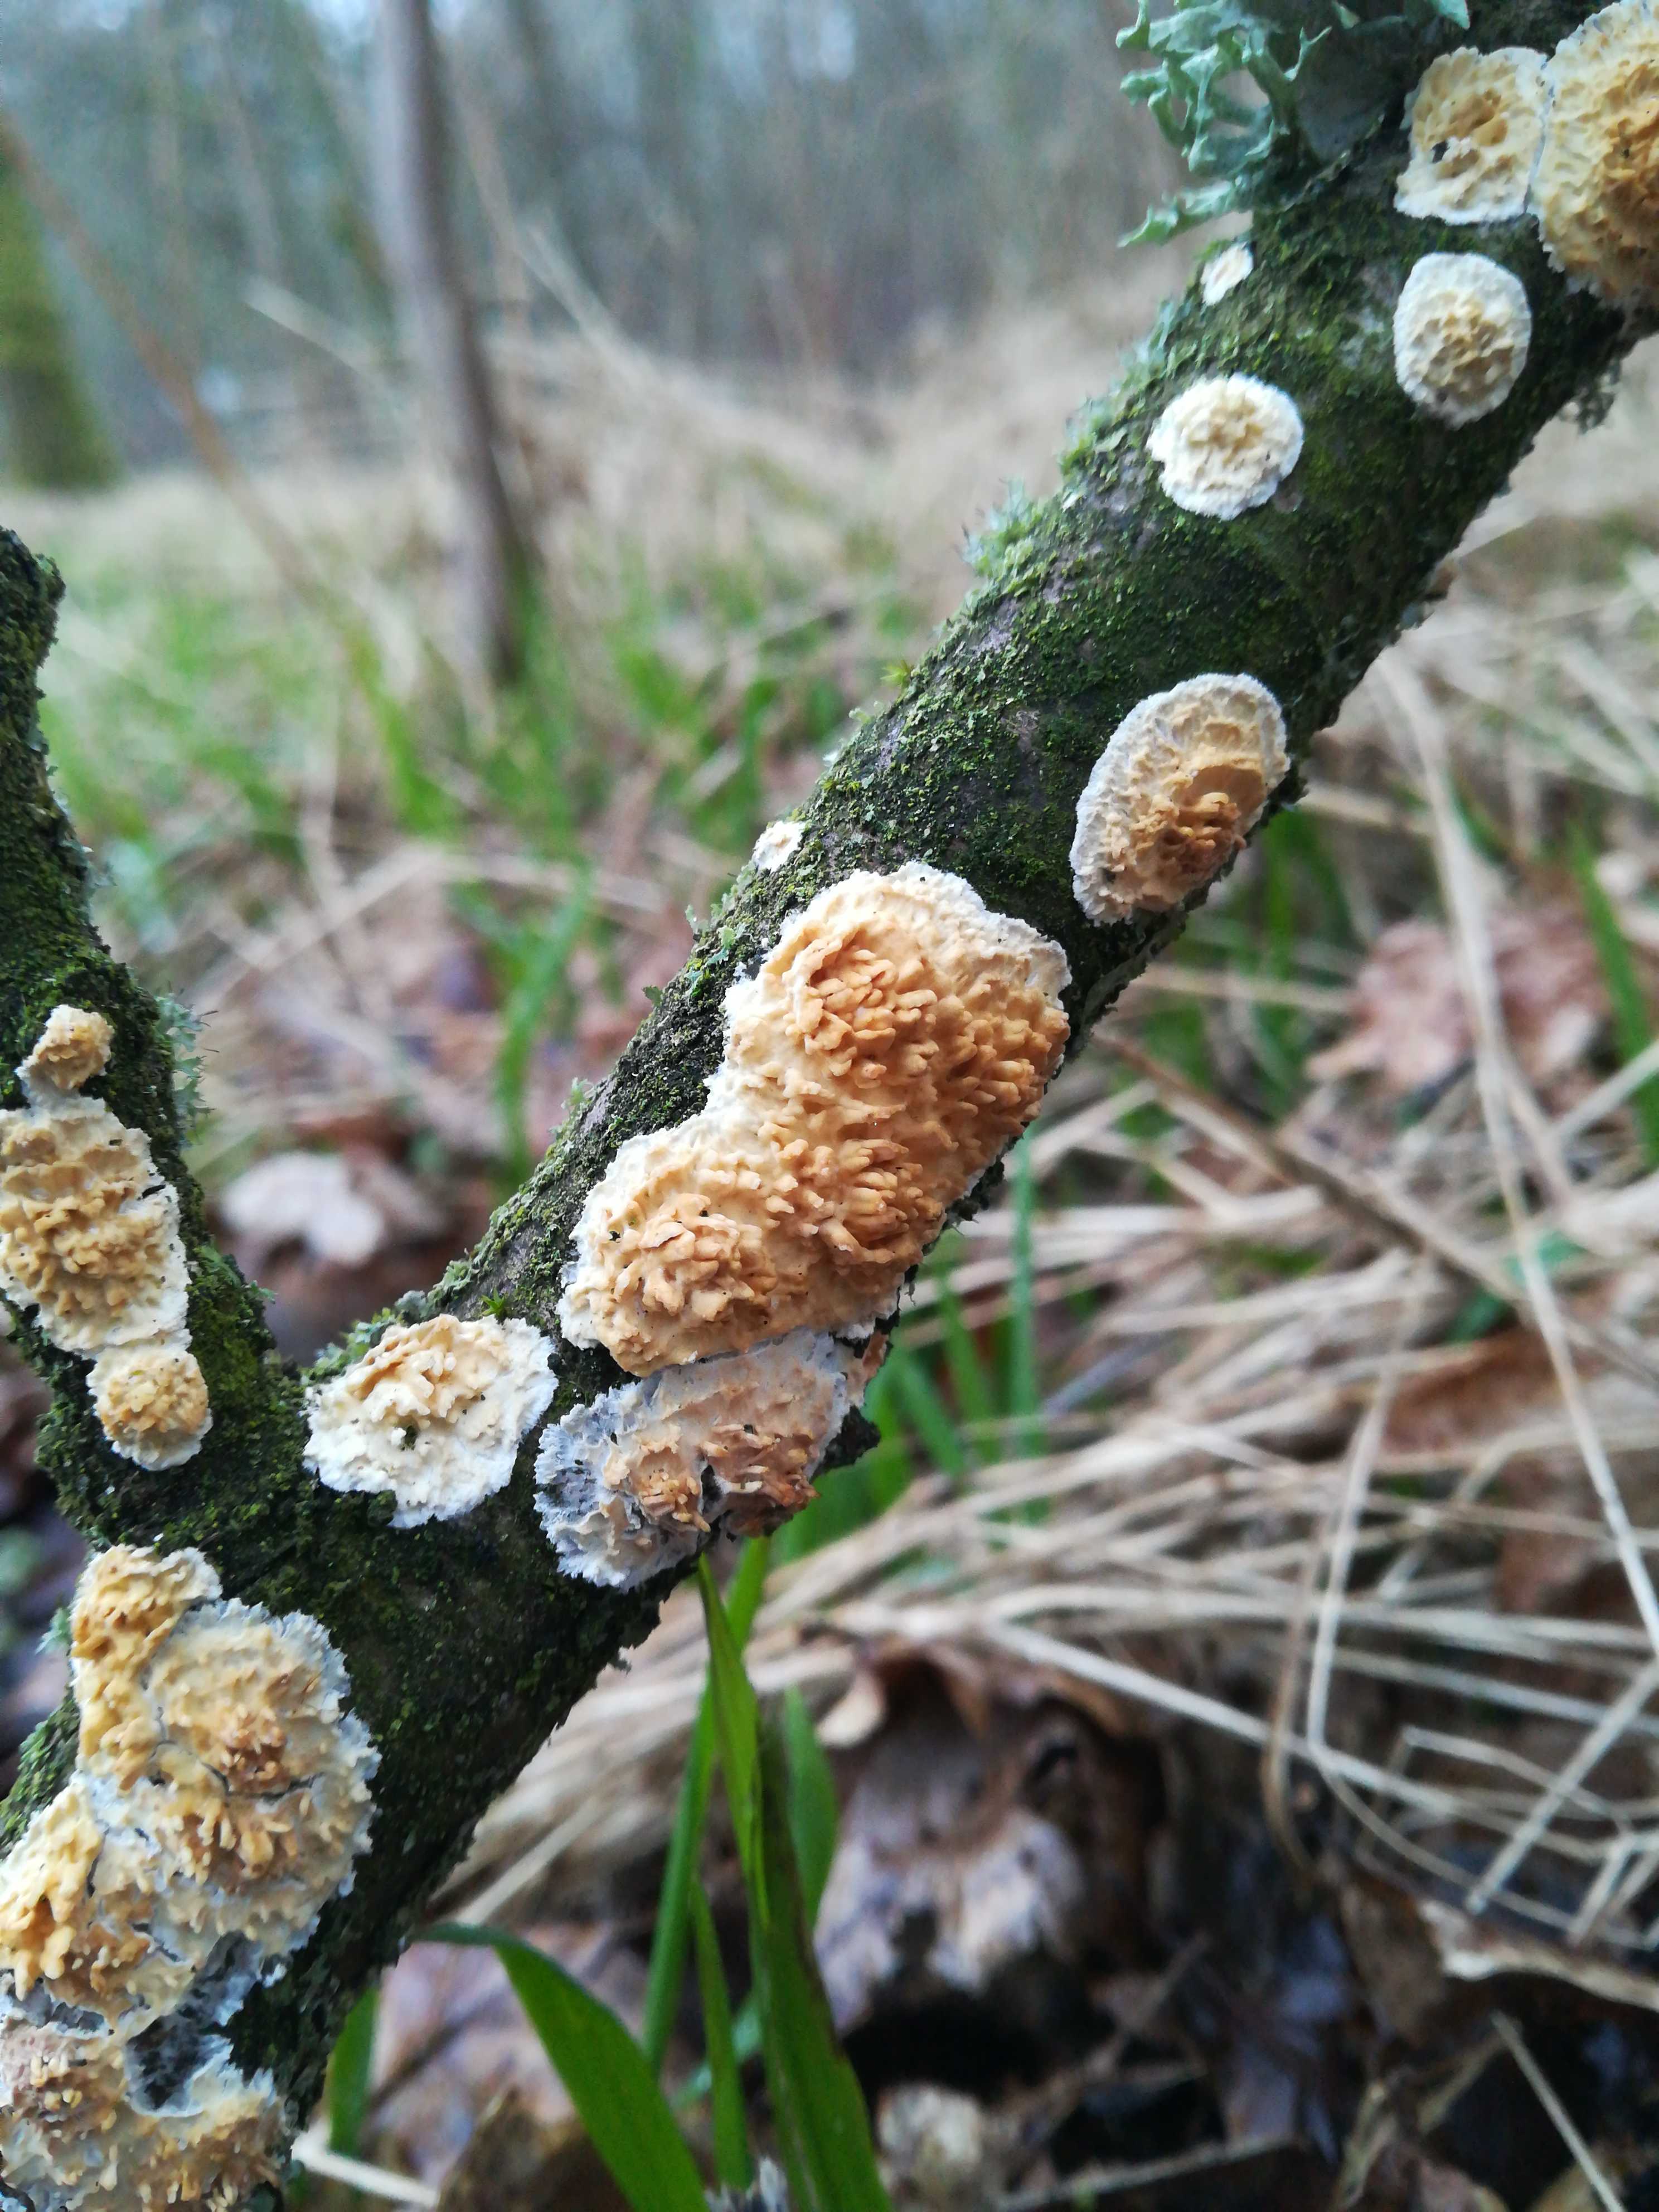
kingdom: Fungi
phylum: Basidiomycota
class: Agaricomycetes
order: Hymenochaetales
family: Schizoporaceae
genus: Xylodon
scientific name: Xylodon radula
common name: grovtandet kalkskind
